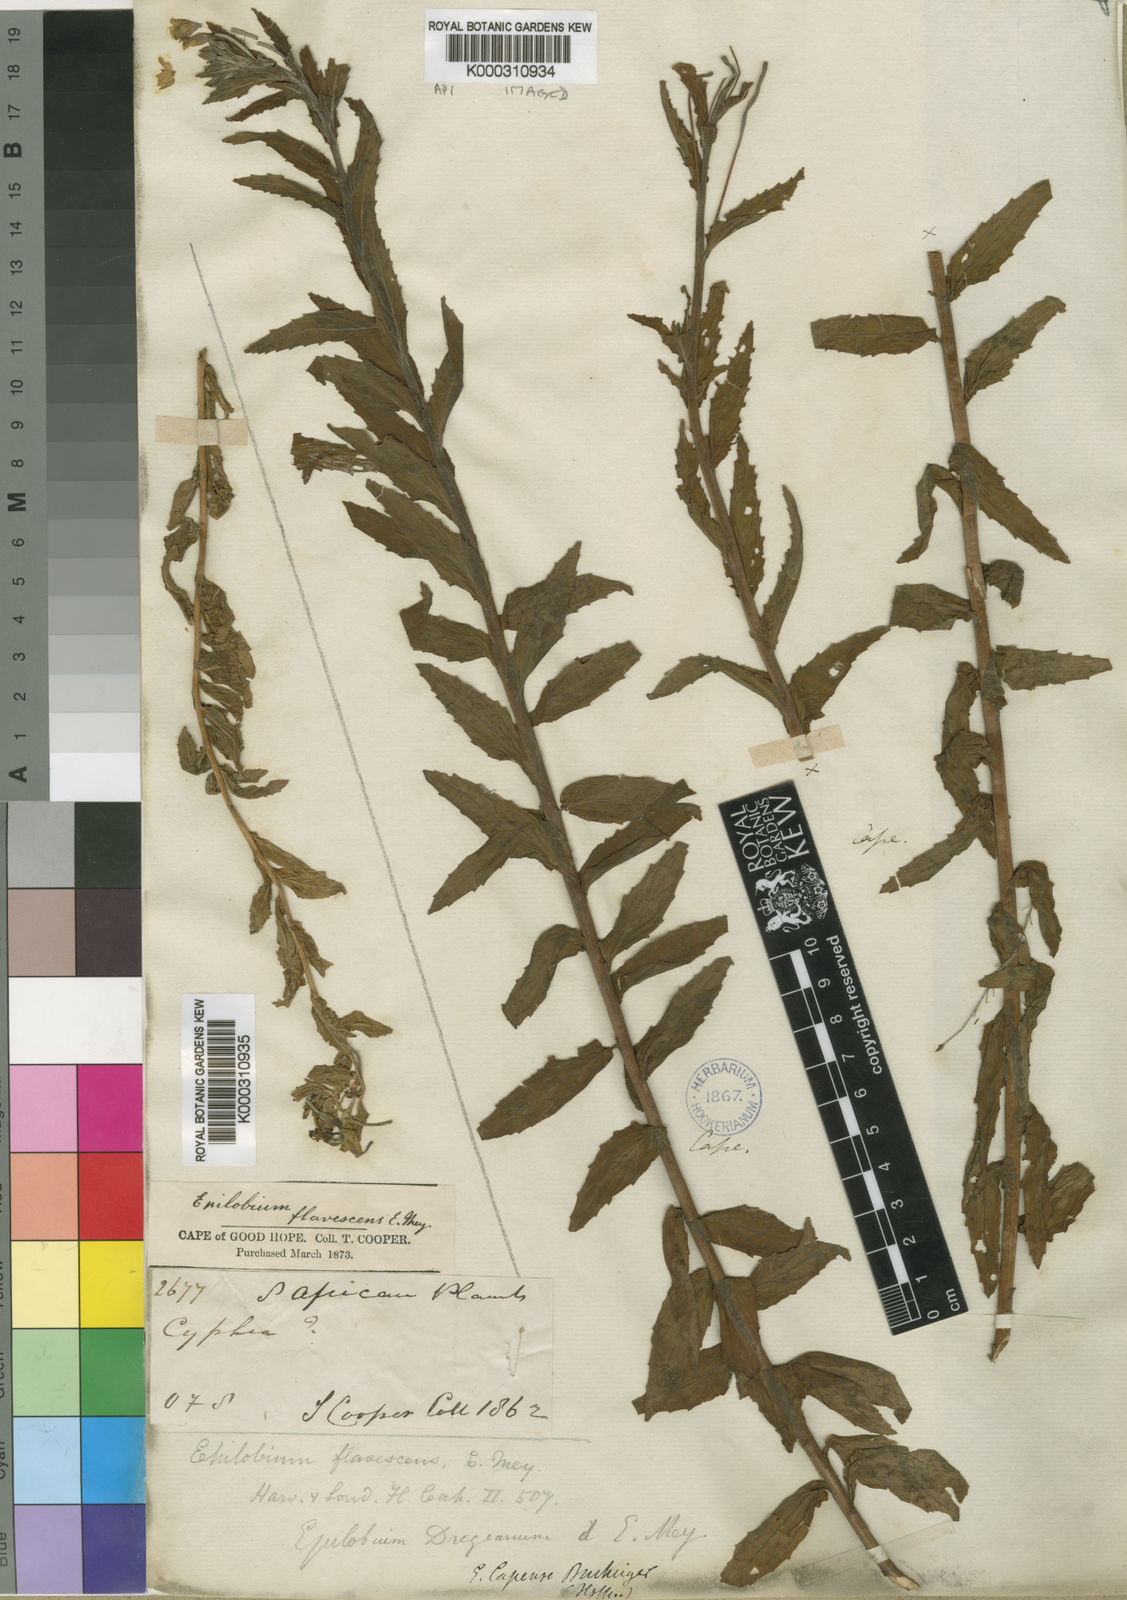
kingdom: Plantae
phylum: Tracheophyta
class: Magnoliopsida
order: Myrtales
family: Onagraceae
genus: Epilobium
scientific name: Epilobium
